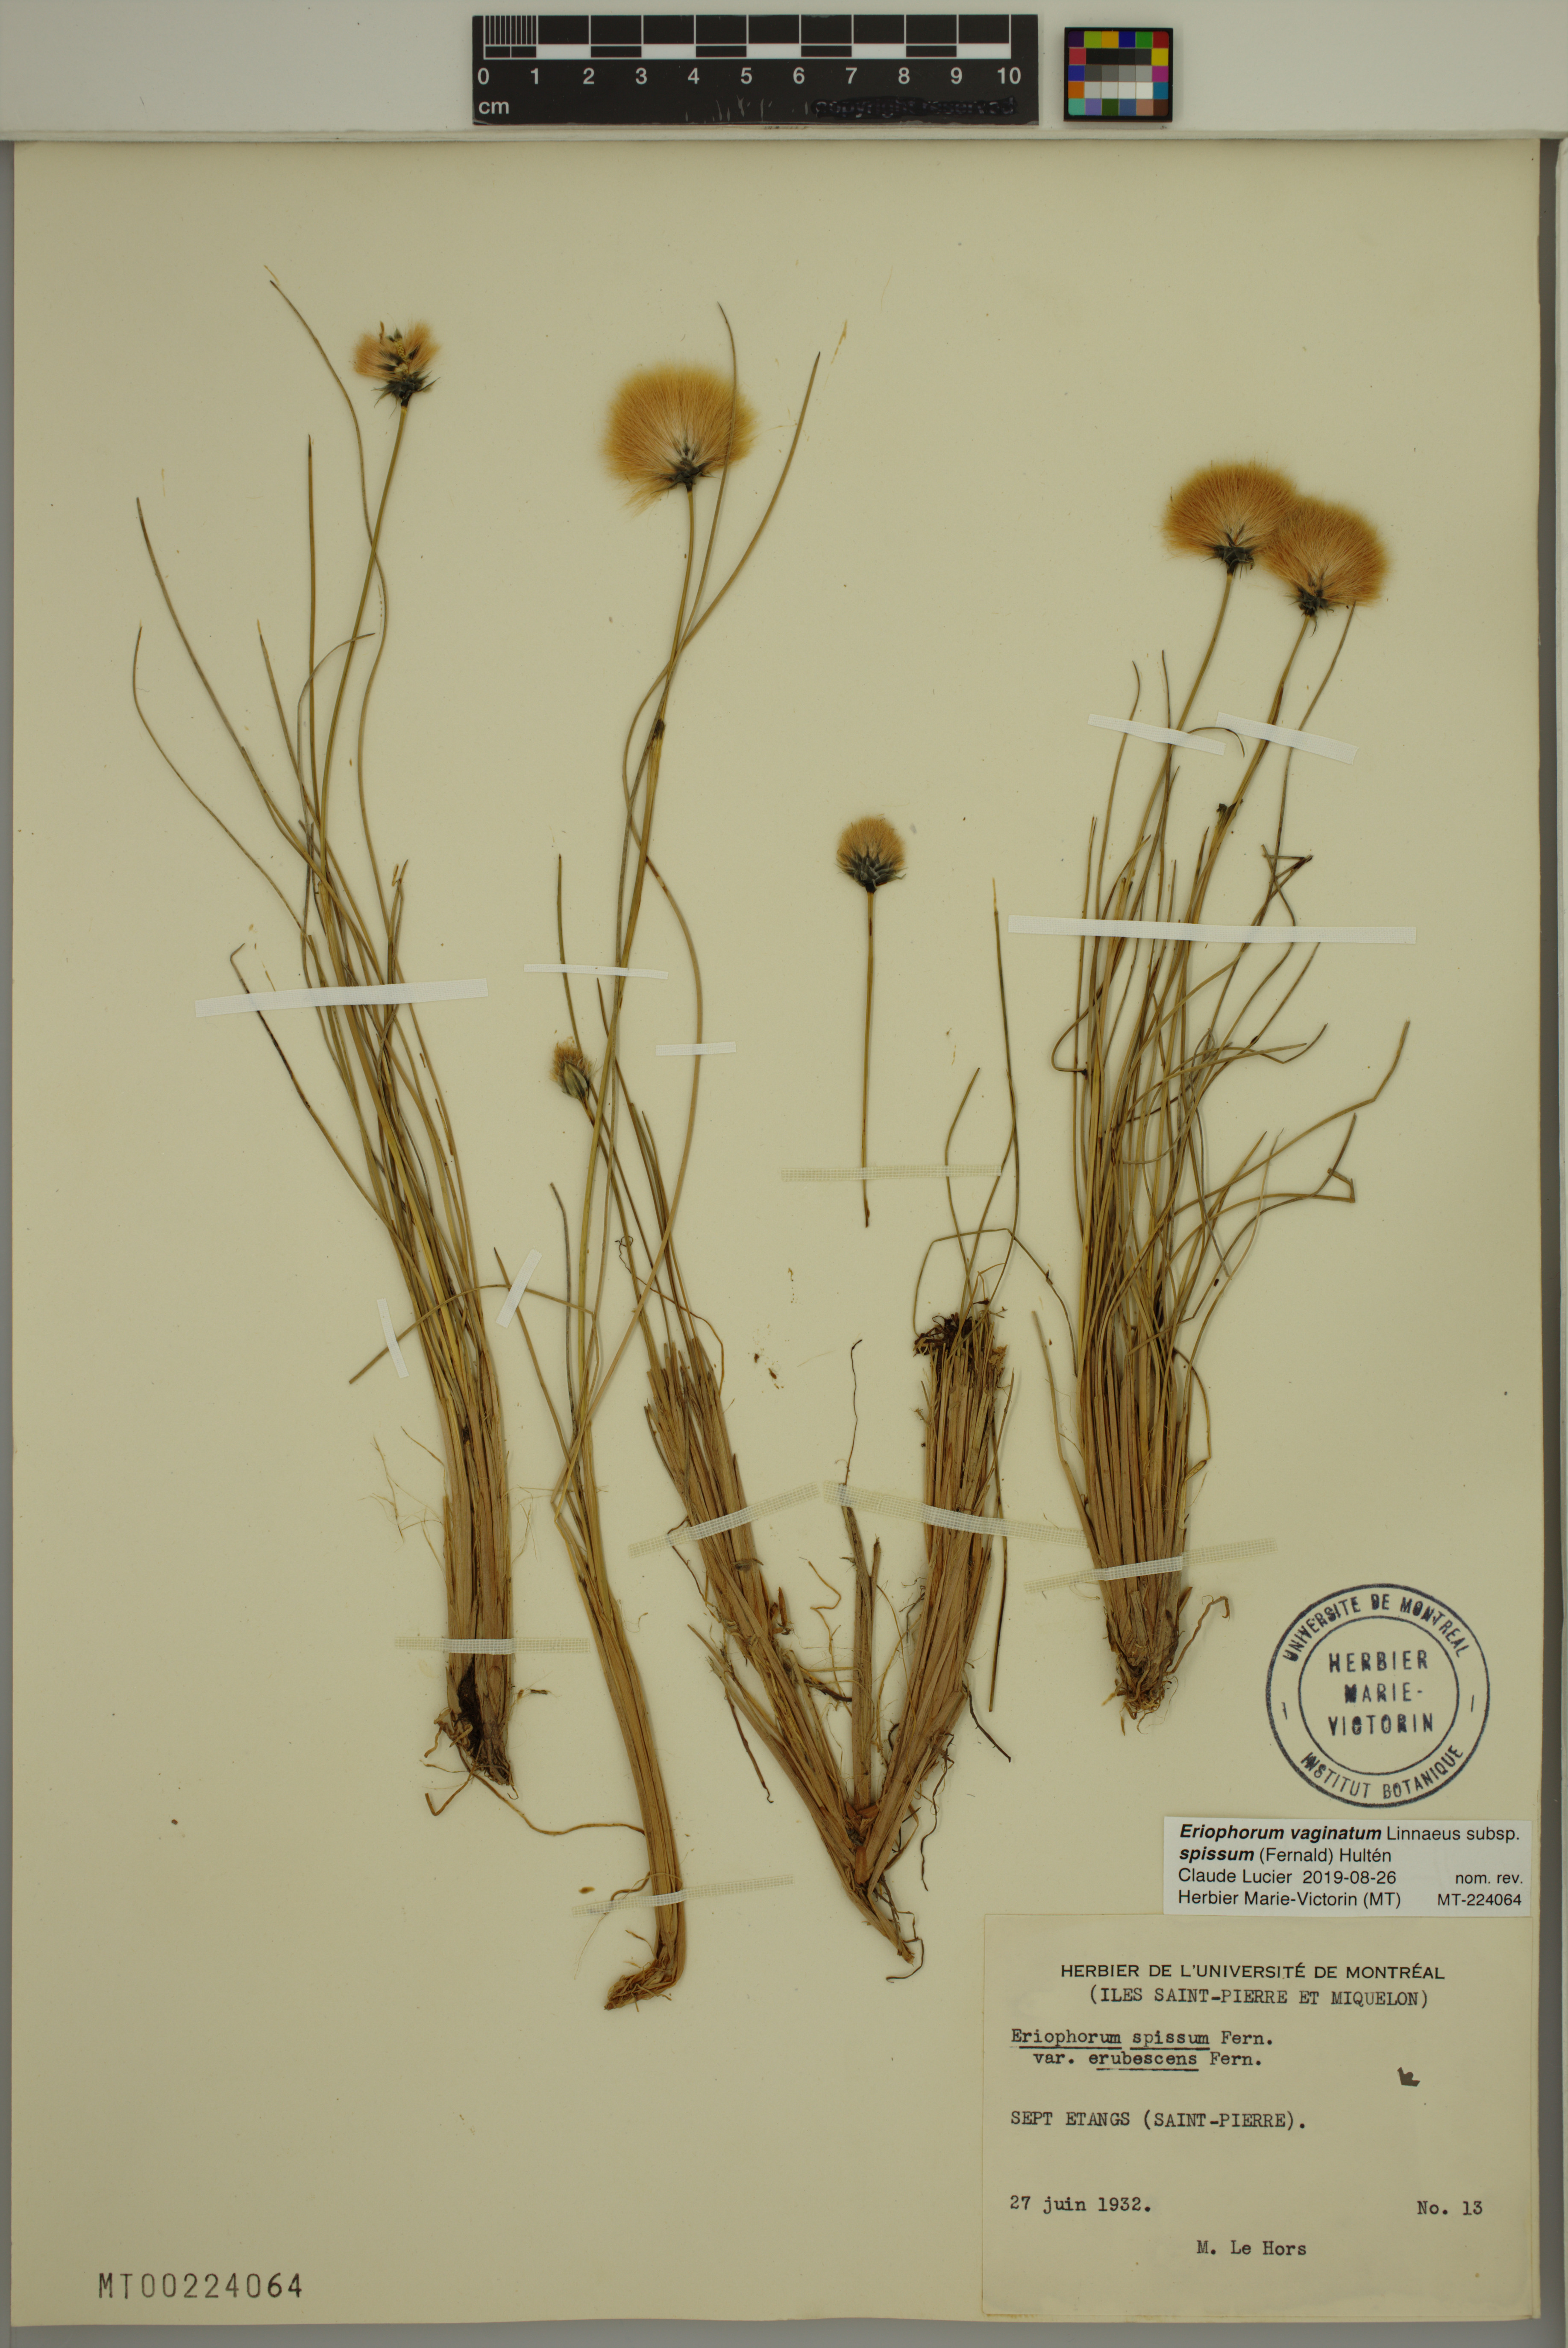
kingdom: Plantae
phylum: Tracheophyta
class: Liliopsida
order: Poales
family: Cyperaceae
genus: Eriophorum
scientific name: Eriophorum vaginatum
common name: Hare's-tail cottongrass
